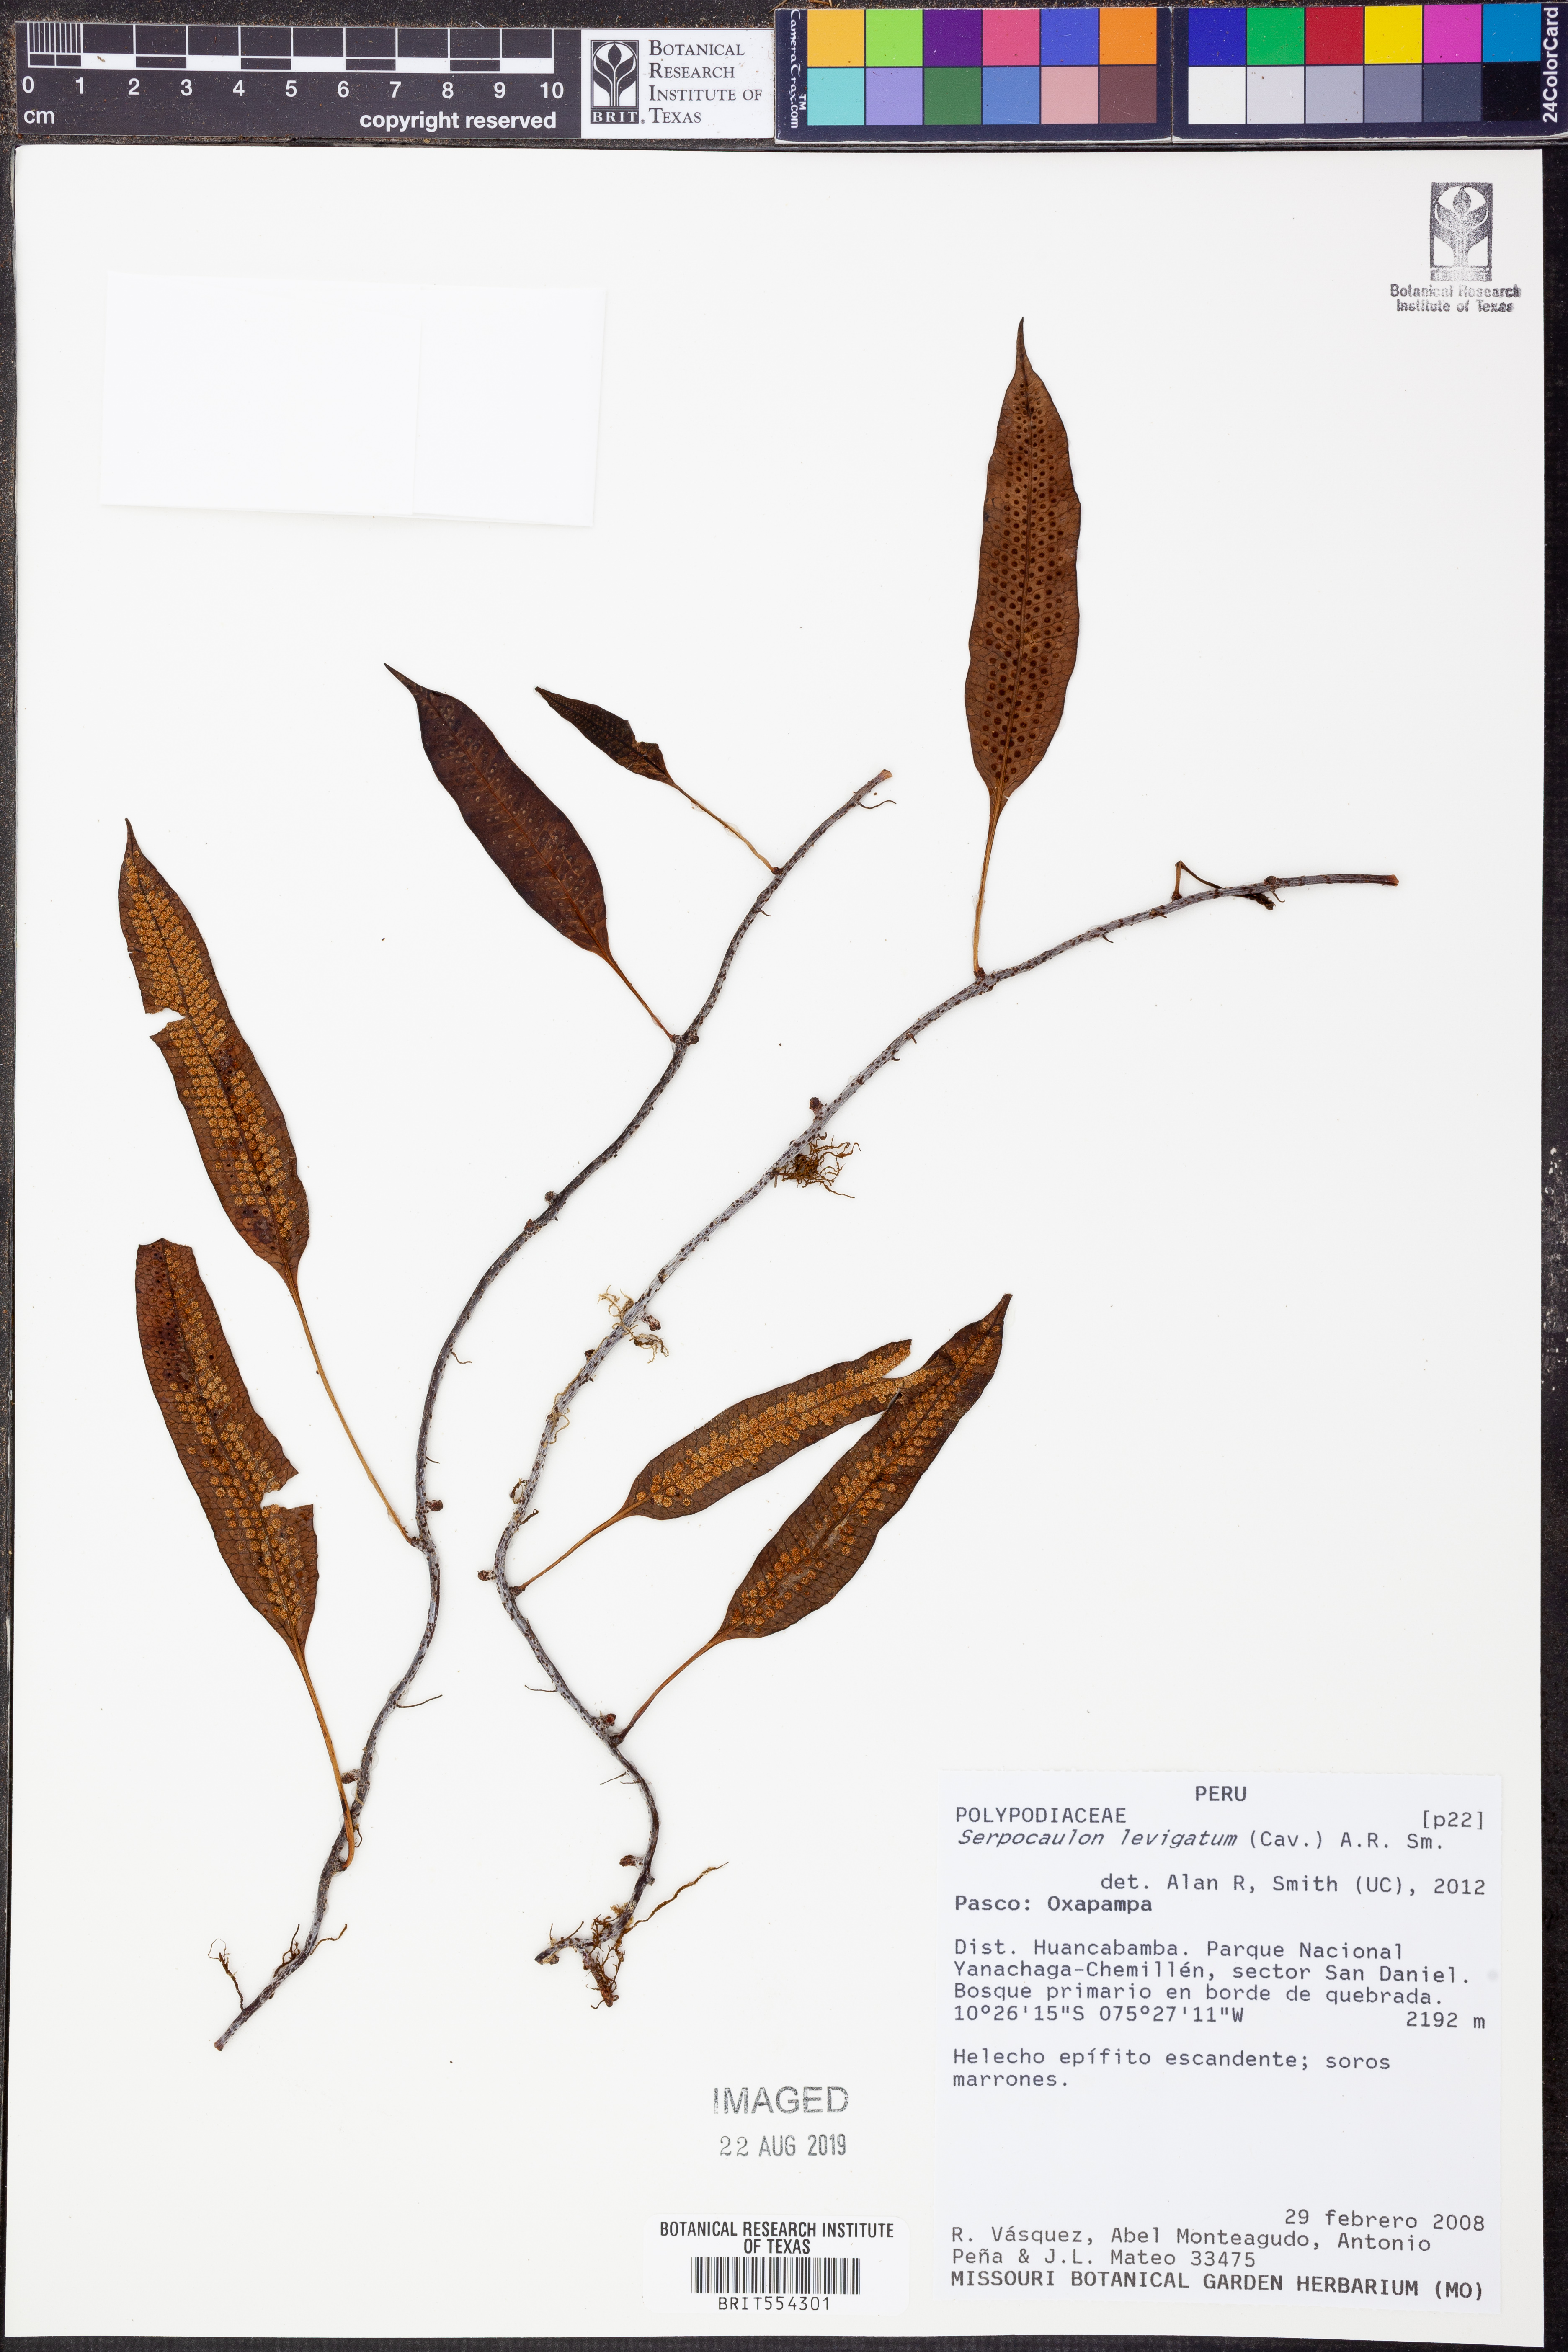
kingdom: Plantae
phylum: Tracheophyta
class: Polypodiopsida
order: Polypodiales
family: Polypodiaceae
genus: Serpocaulon
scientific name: Serpocaulon levigatum
